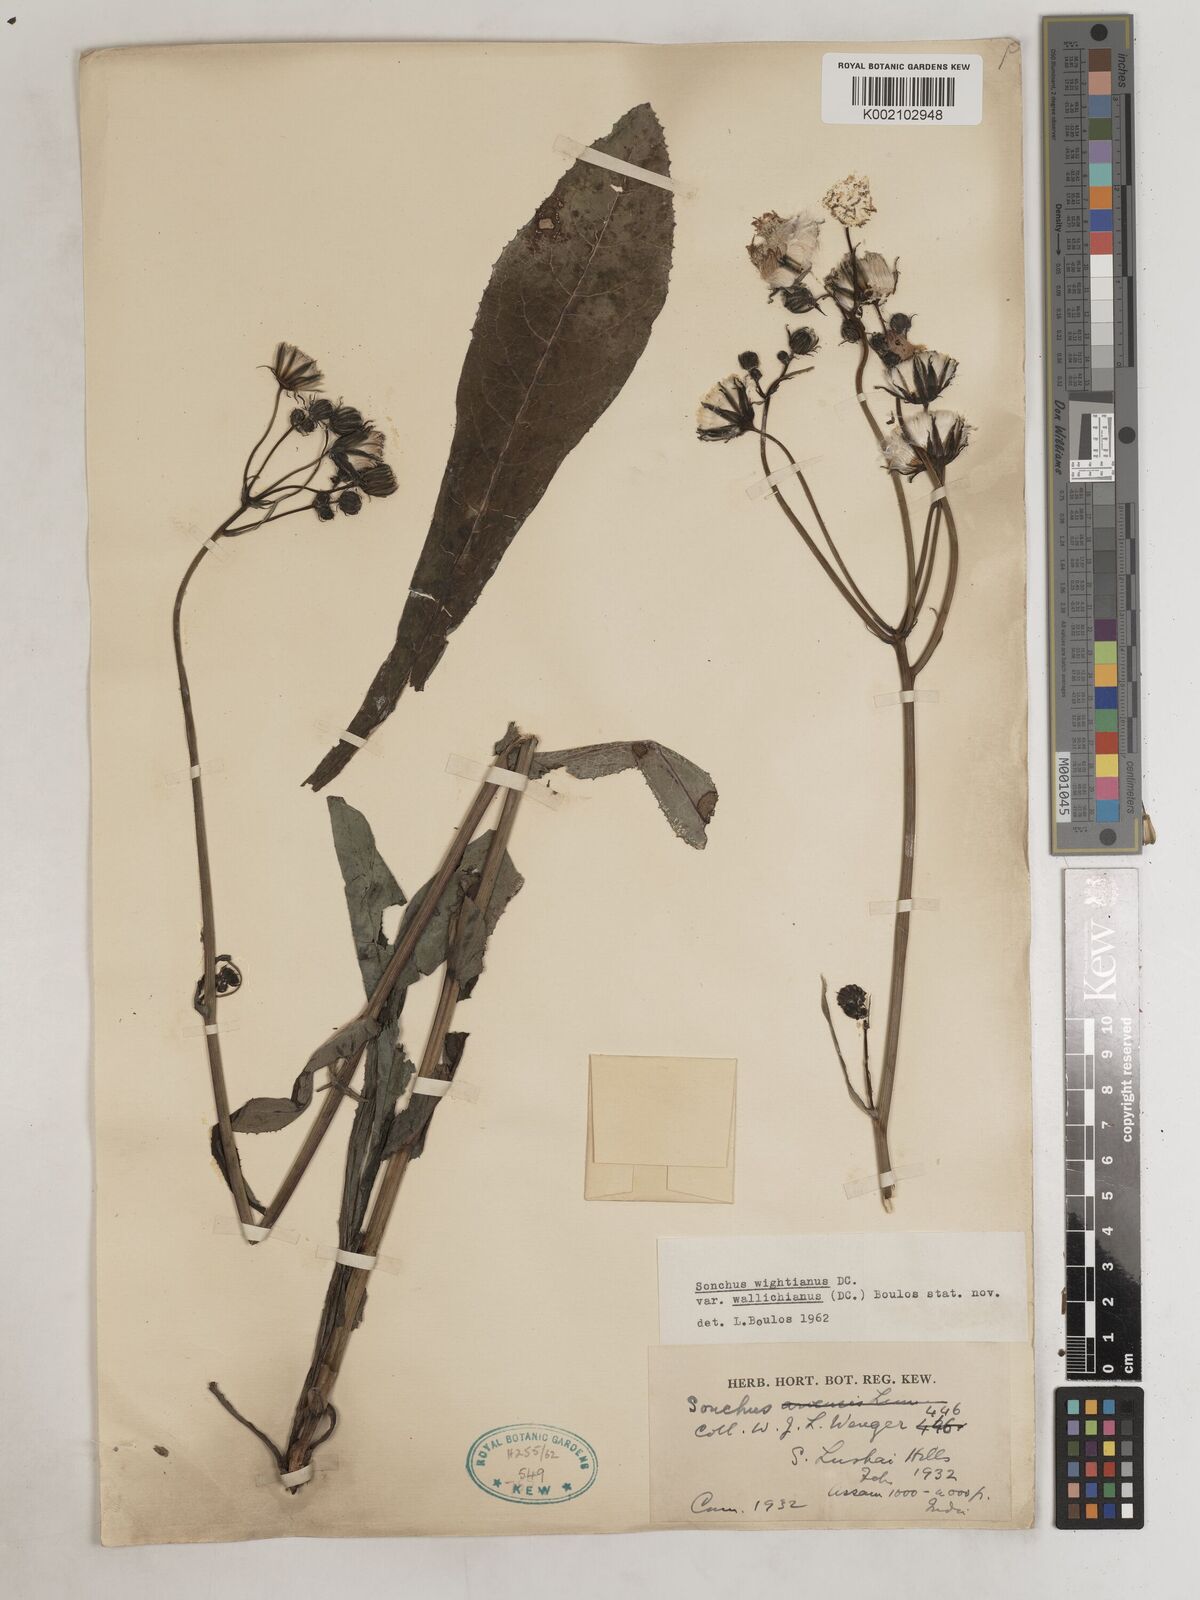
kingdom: Plantae
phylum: Tracheophyta
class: Magnoliopsida
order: Asterales
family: Asteraceae
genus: Sonchus
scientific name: Sonchus arvensis
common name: Perennial sow-thistle
